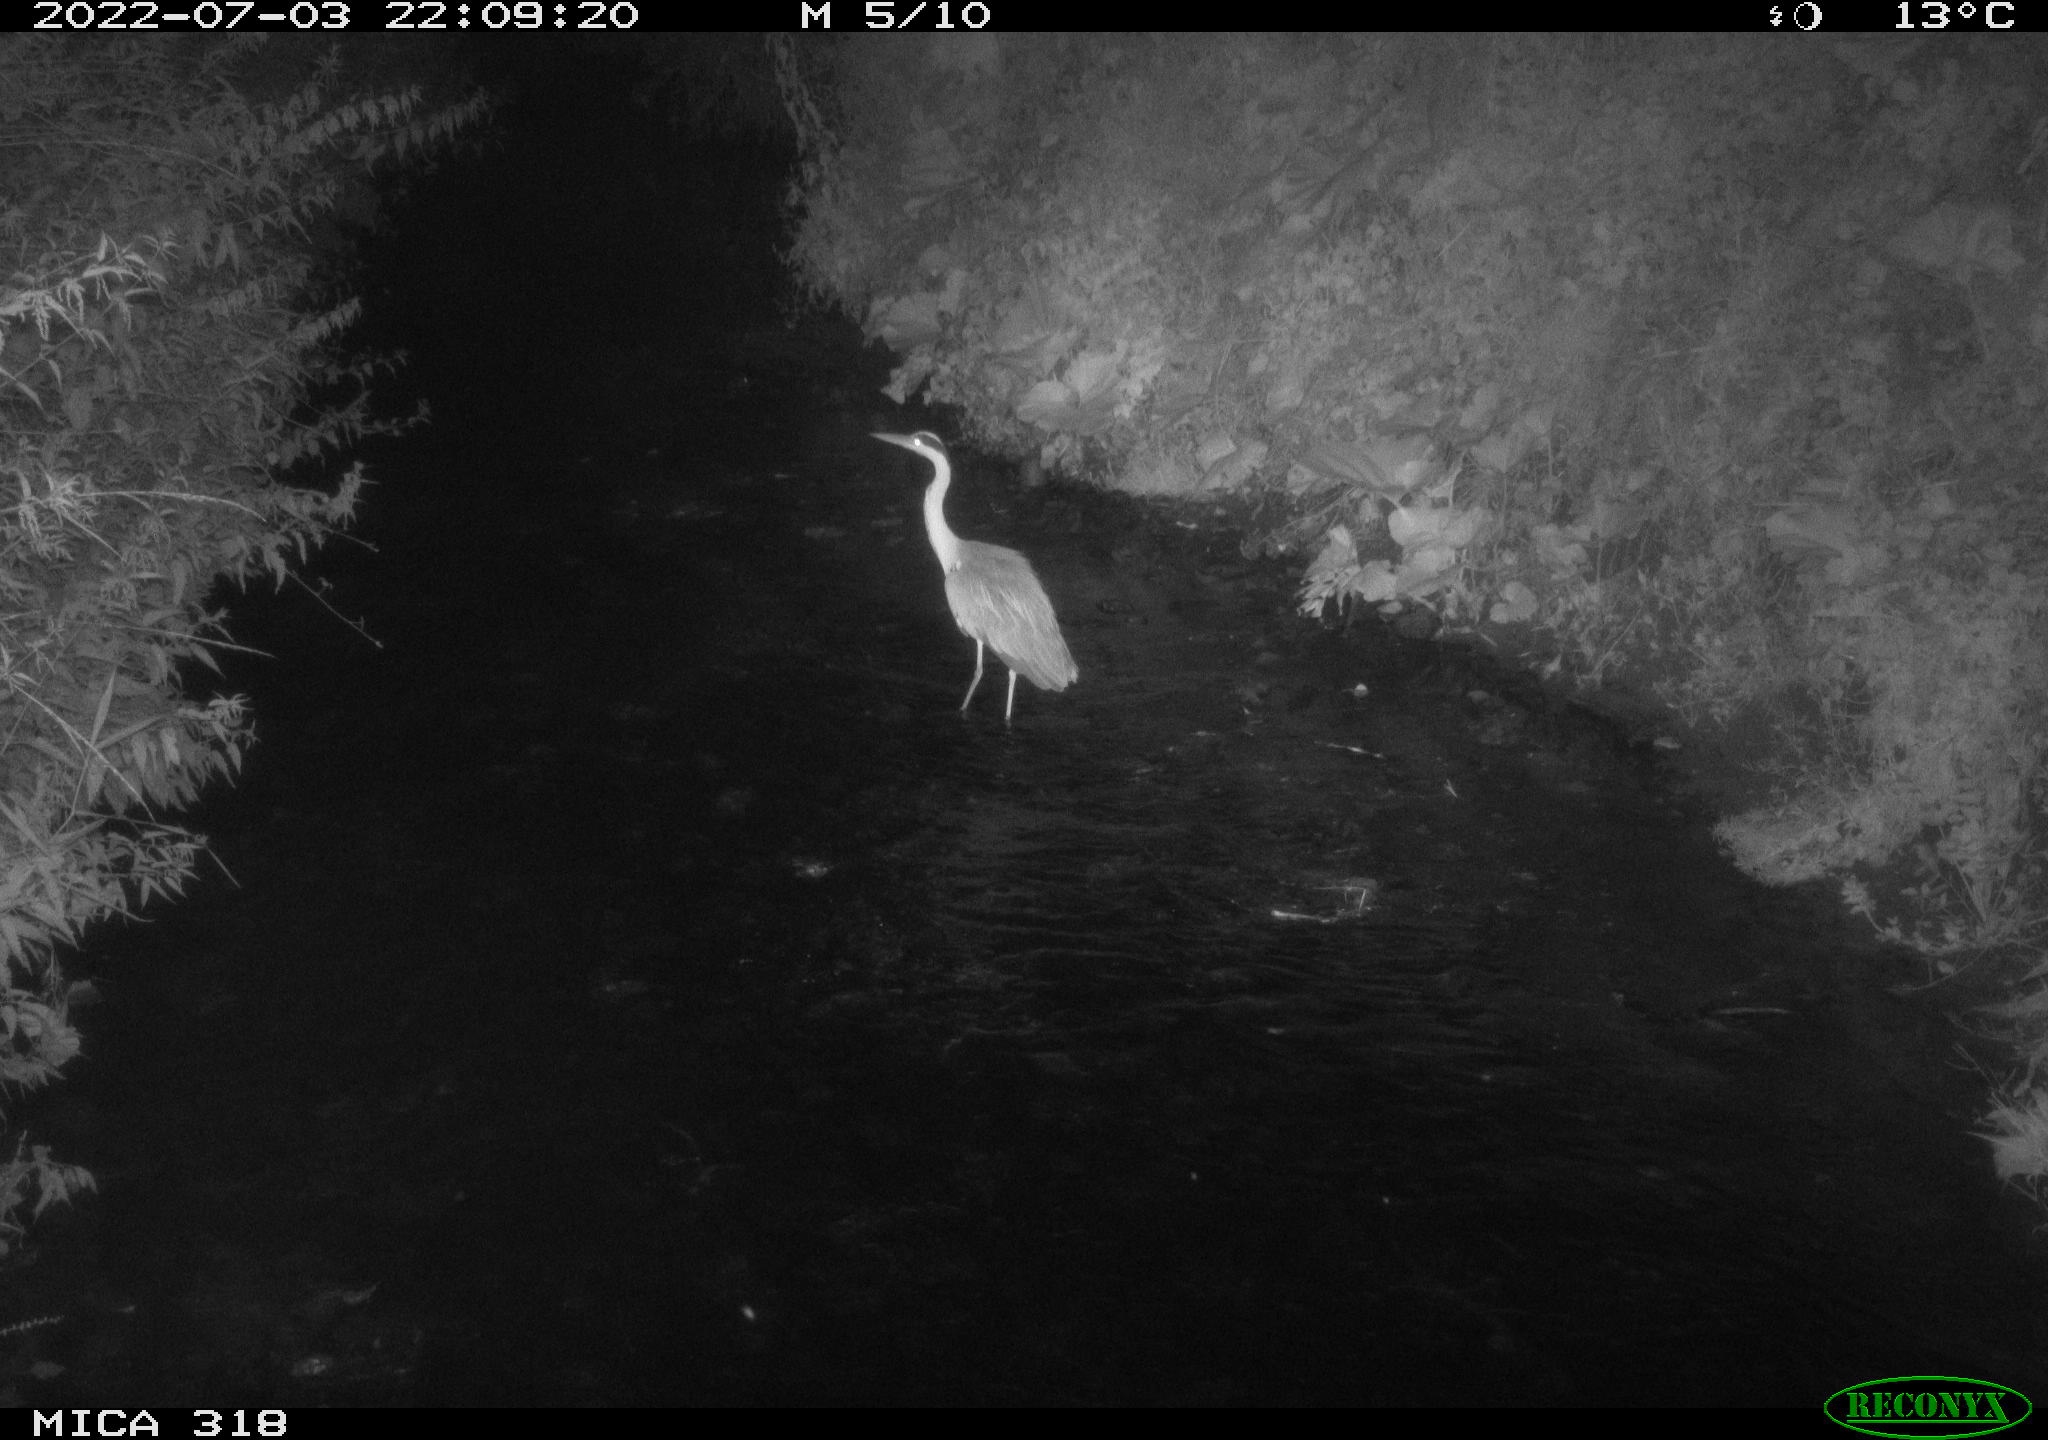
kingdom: Animalia
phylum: Chordata
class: Aves
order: Pelecaniformes
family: Ardeidae
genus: Ardea
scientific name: Ardea
